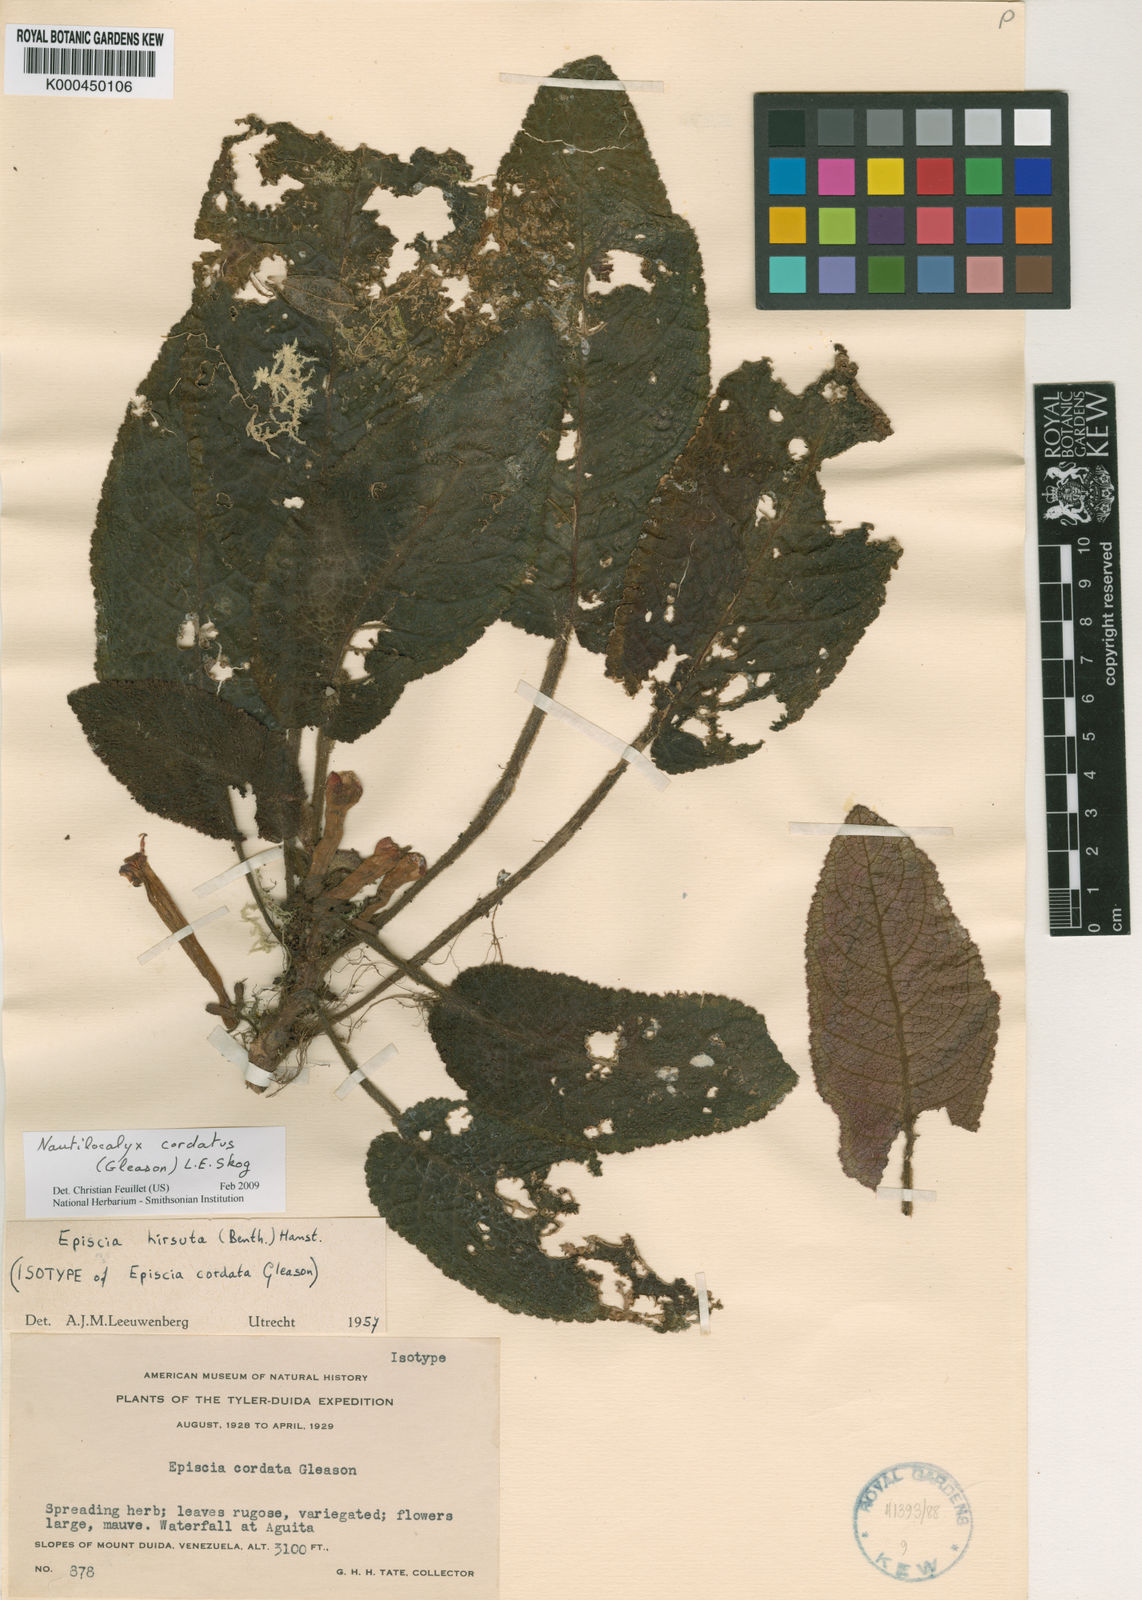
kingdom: Plantae
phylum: Tracheophyta
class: Magnoliopsida
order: Lamiales
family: Gesneriaceae
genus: Centrosolenia
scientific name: Centrosolenia hirsuta
